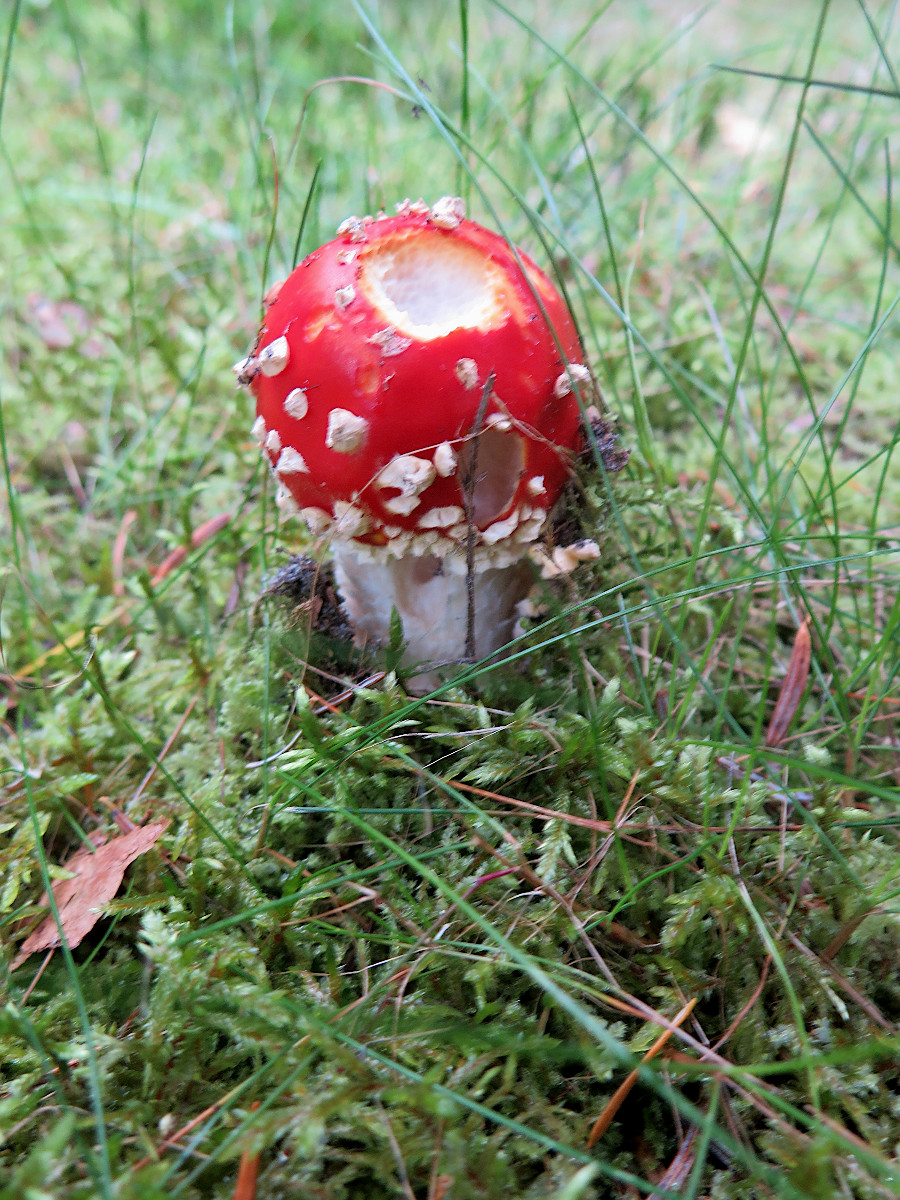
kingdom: Fungi
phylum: Basidiomycota
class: Agaricomycetes
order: Agaricales
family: Amanitaceae
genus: Amanita
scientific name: Amanita muscaria
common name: rød fluesvamp
